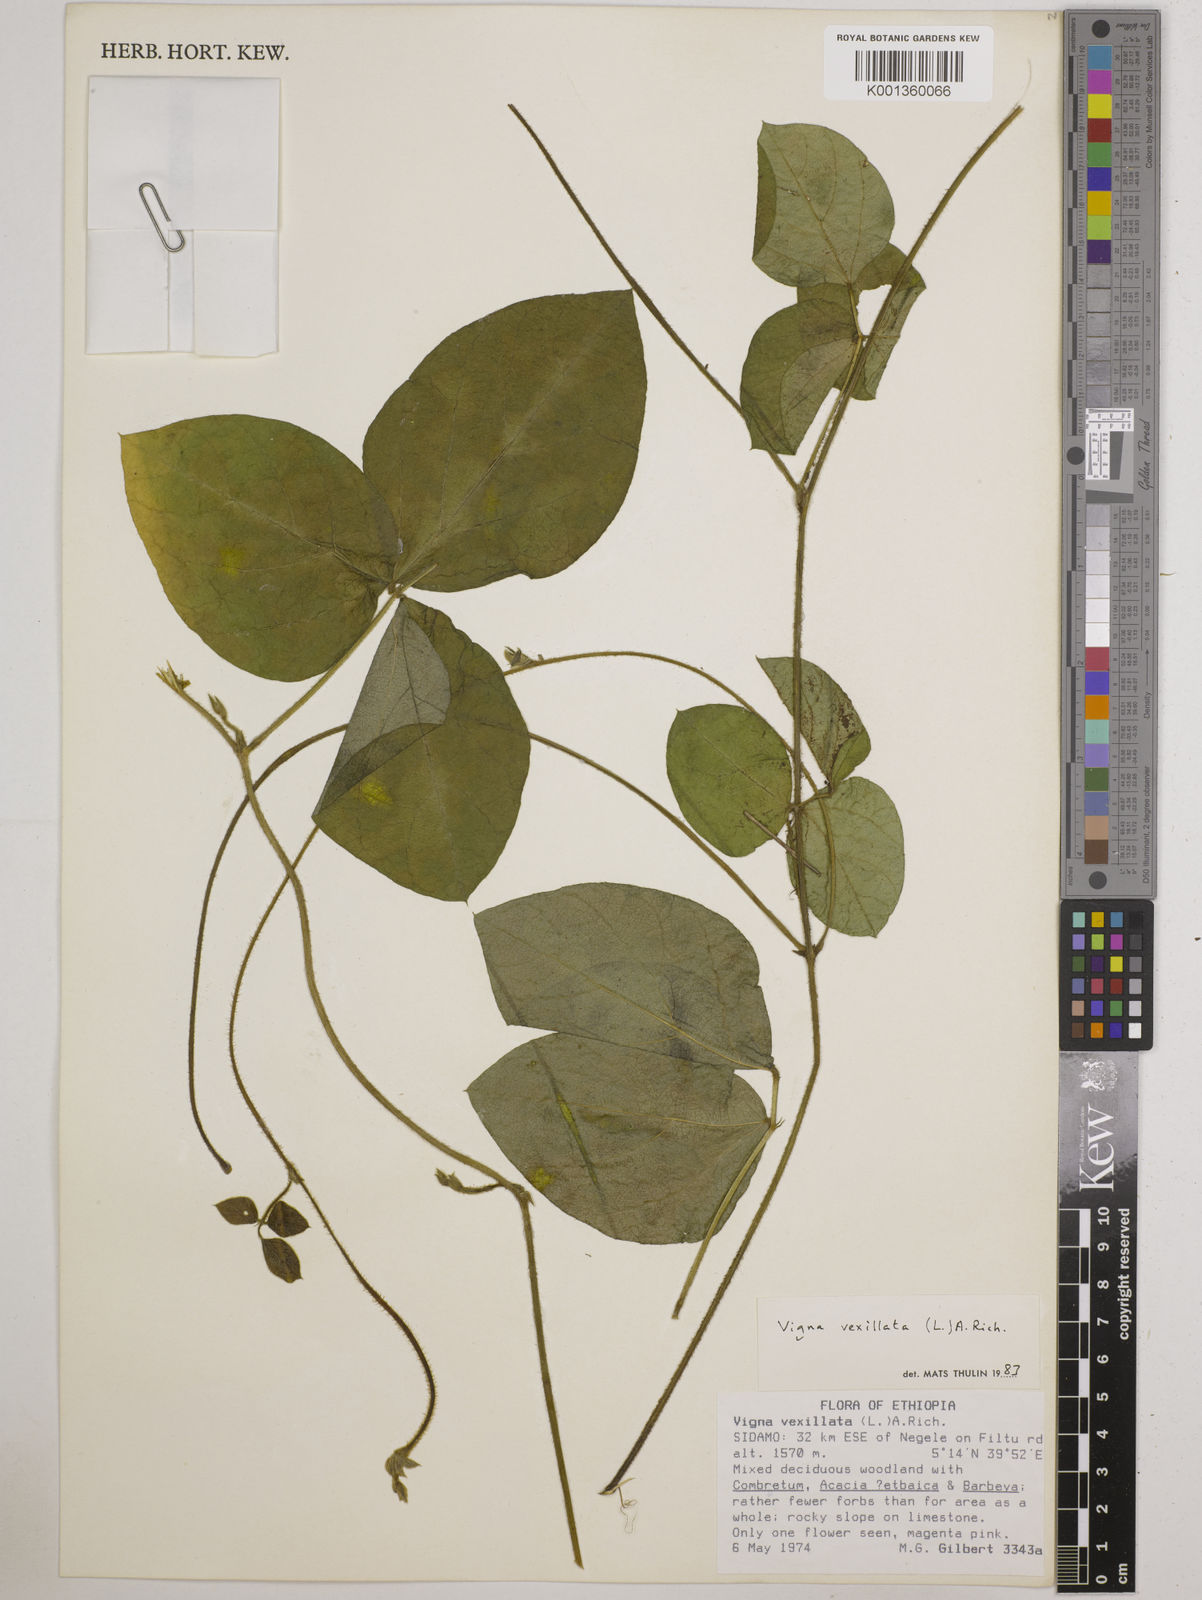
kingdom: Plantae
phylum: Tracheophyta
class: Magnoliopsida
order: Fabales
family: Fabaceae
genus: Vigna
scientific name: Vigna vexillata
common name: Zombi pea
